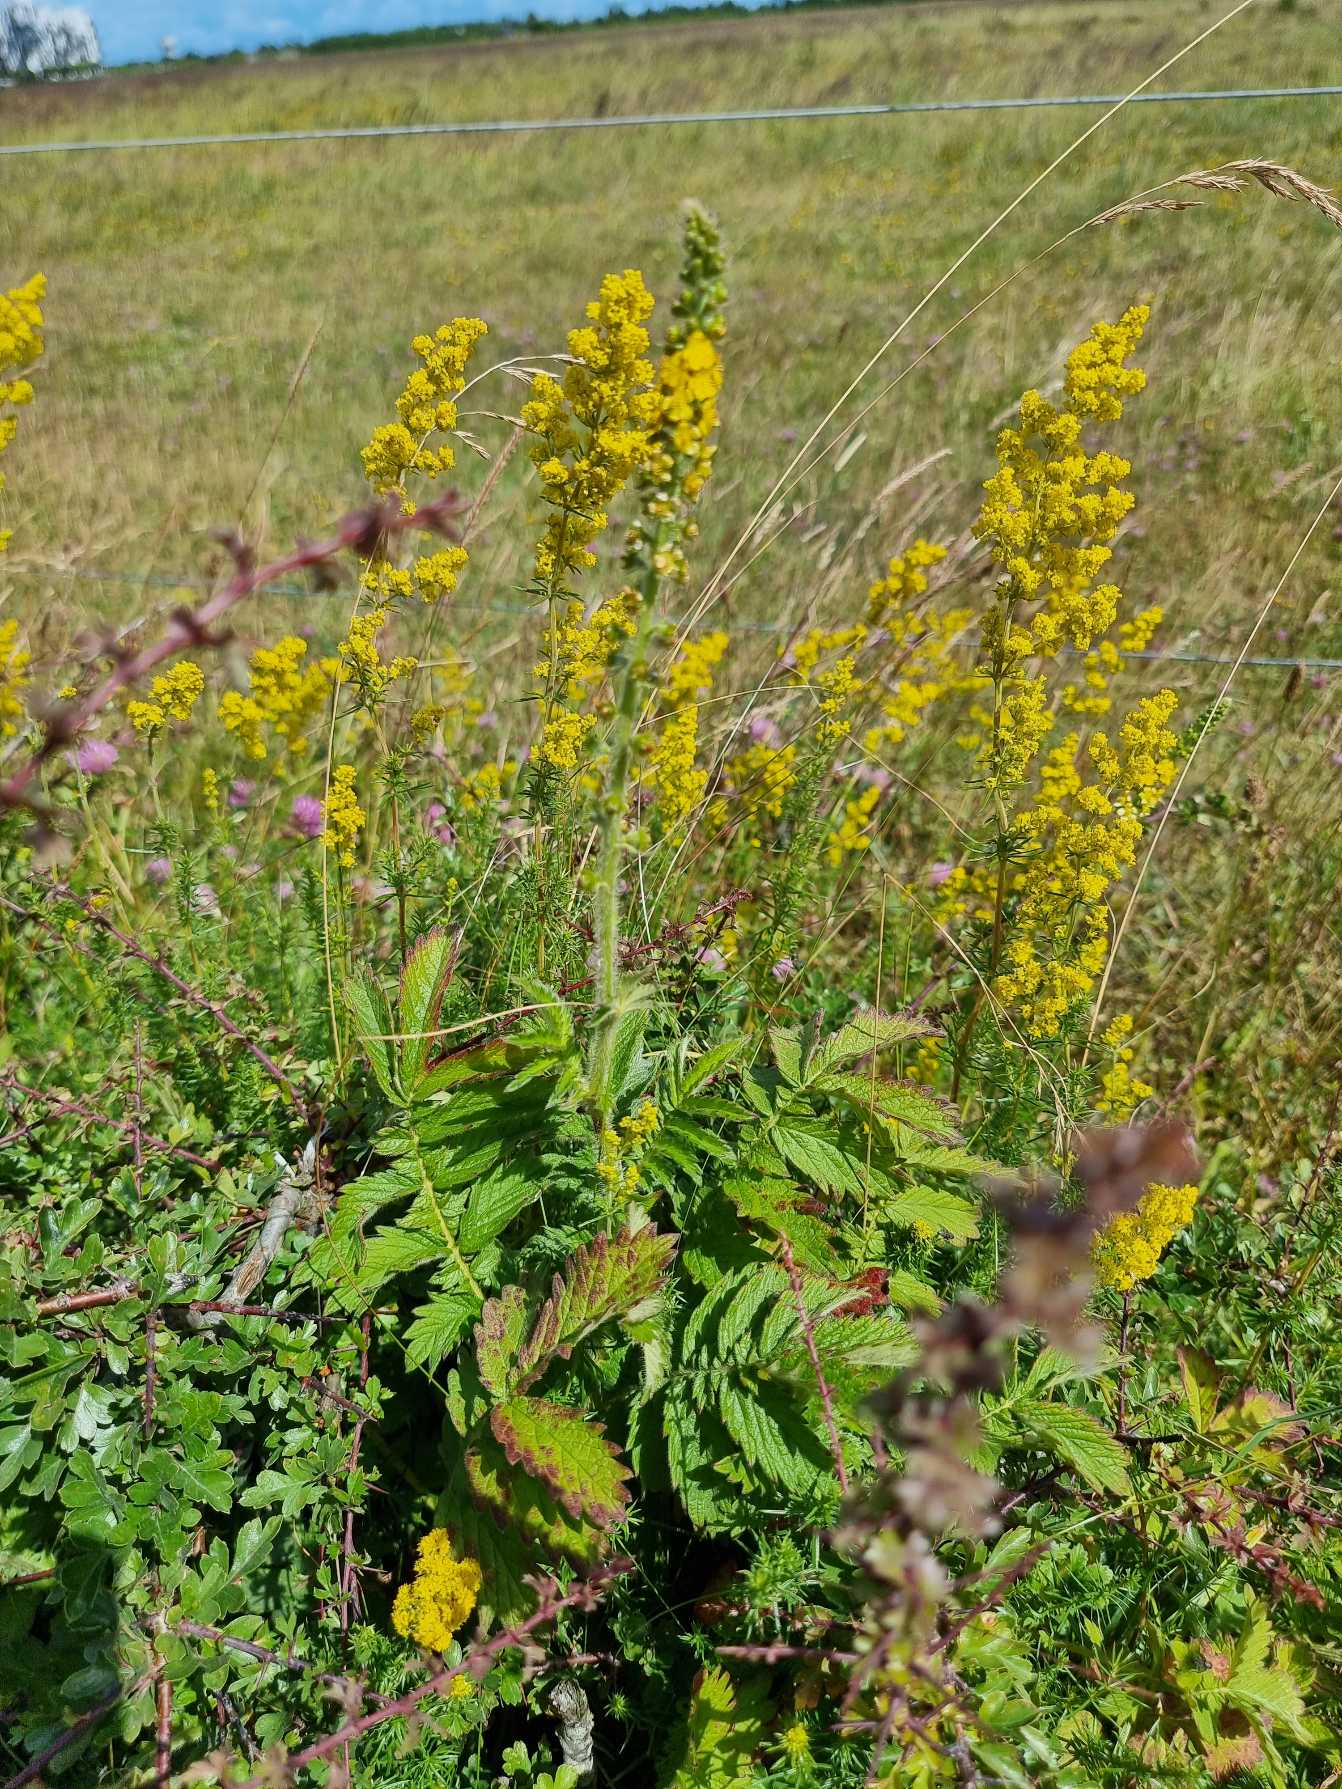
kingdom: Plantae
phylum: Tracheophyta
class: Magnoliopsida
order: Rosales
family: Rosaceae
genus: Agrimonia
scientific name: Agrimonia eupatoria
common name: Almindelig agermåne
